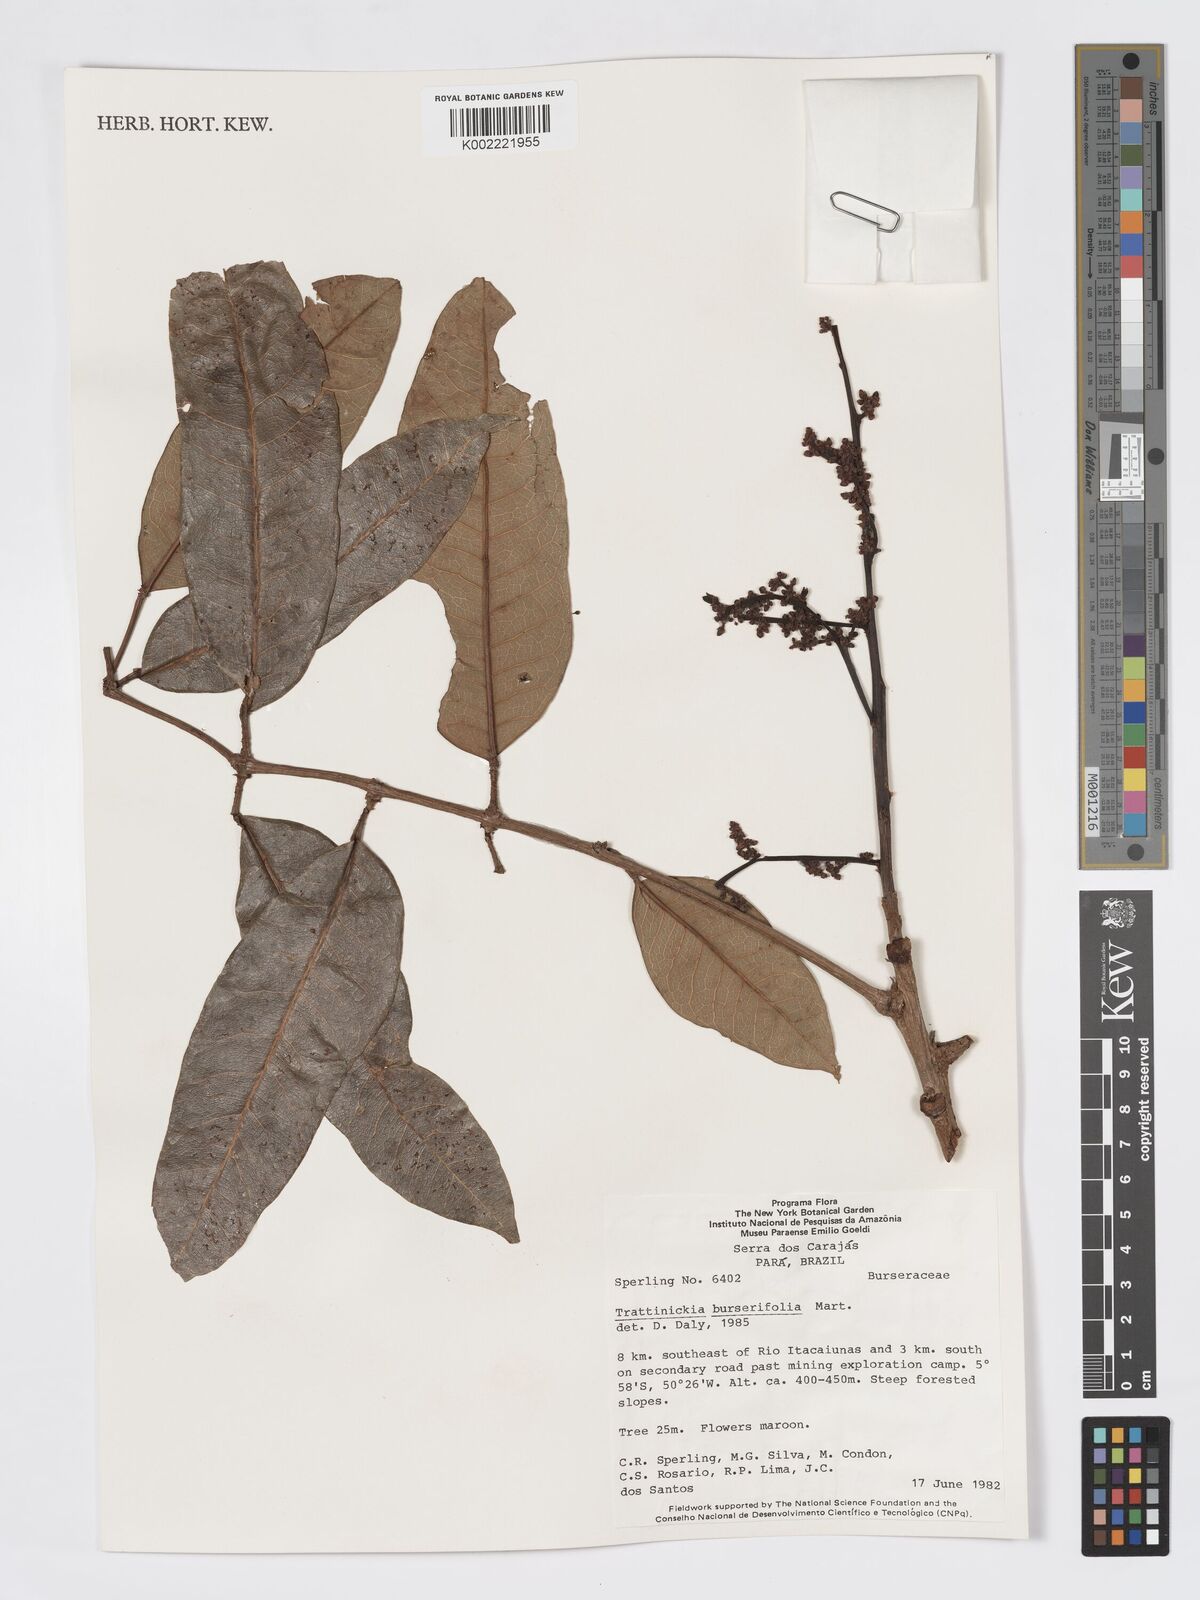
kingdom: Plantae
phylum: Tracheophyta
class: Magnoliopsida
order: Sapindales
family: Burseraceae
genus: Trattinnickia
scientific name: Trattinnickia burserifolia
